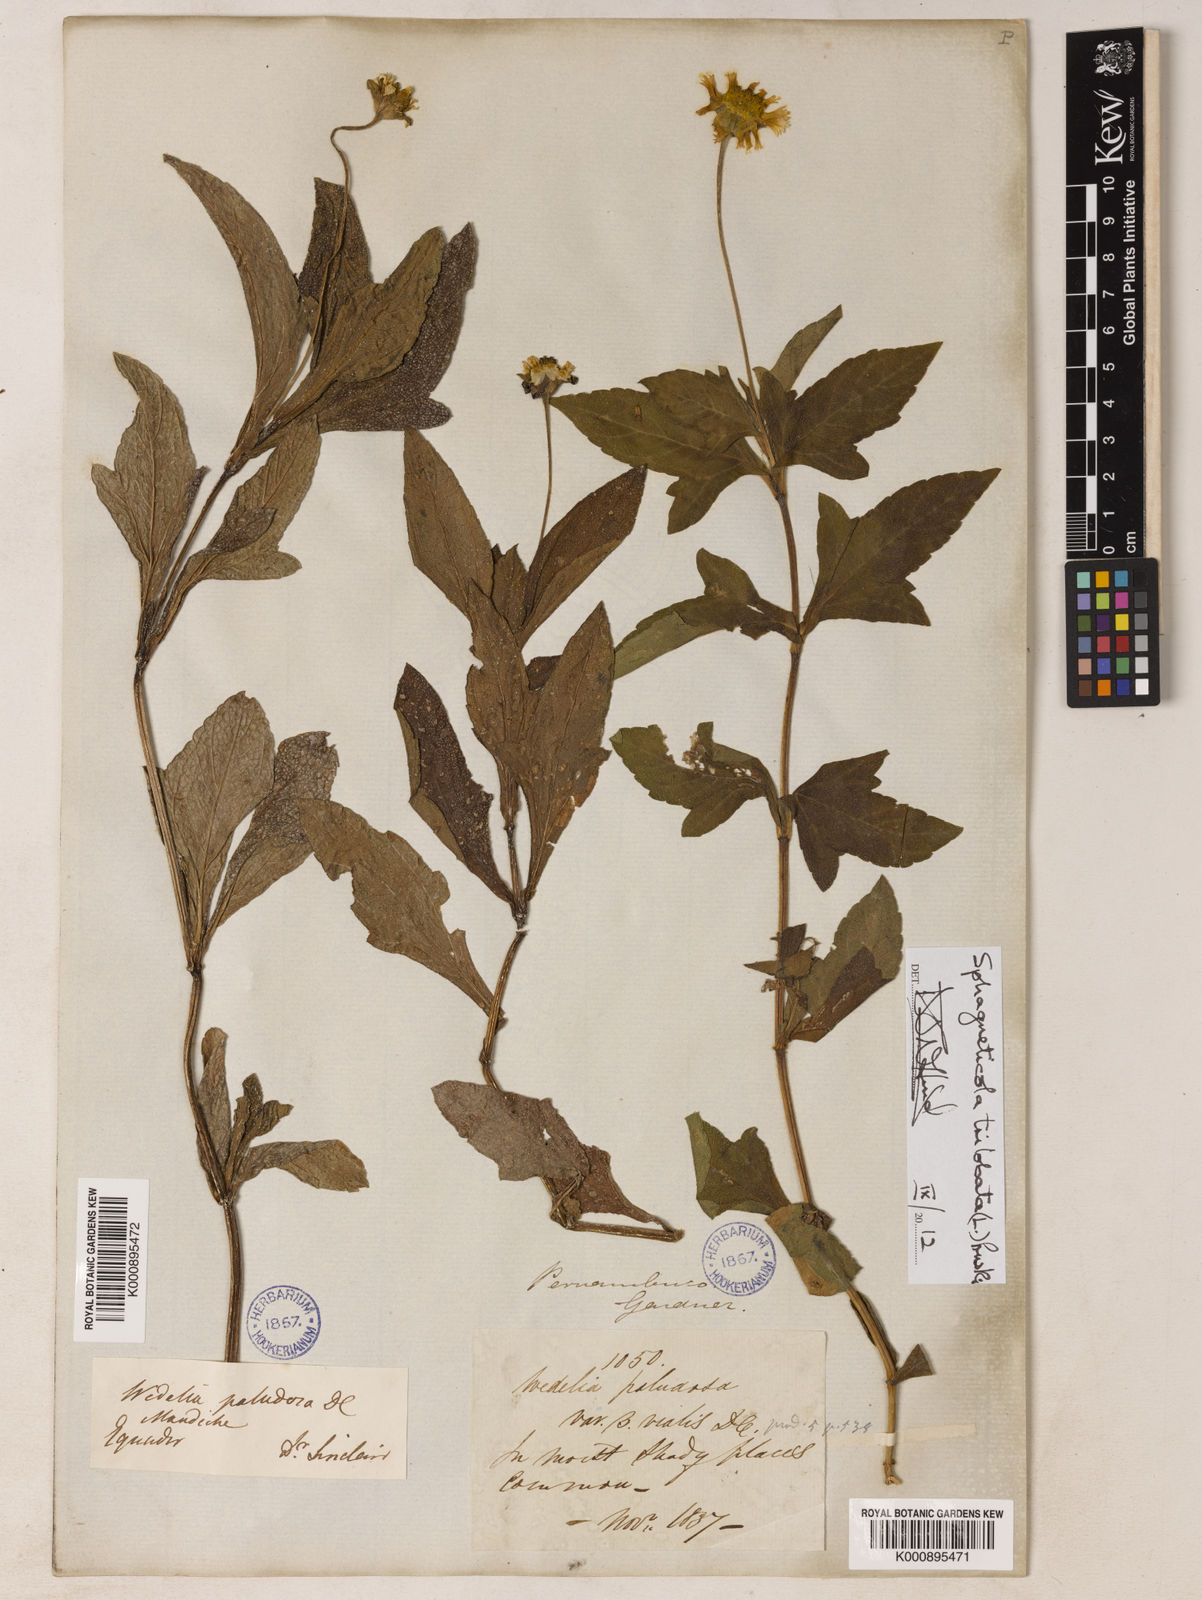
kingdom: Plantae
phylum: Tracheophyta
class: Magnoliopsida
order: Asterales
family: Asteraceae
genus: Sphagneticola
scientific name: Sphagneticola trilobata
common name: Bay biscayne creeping-oxeye
